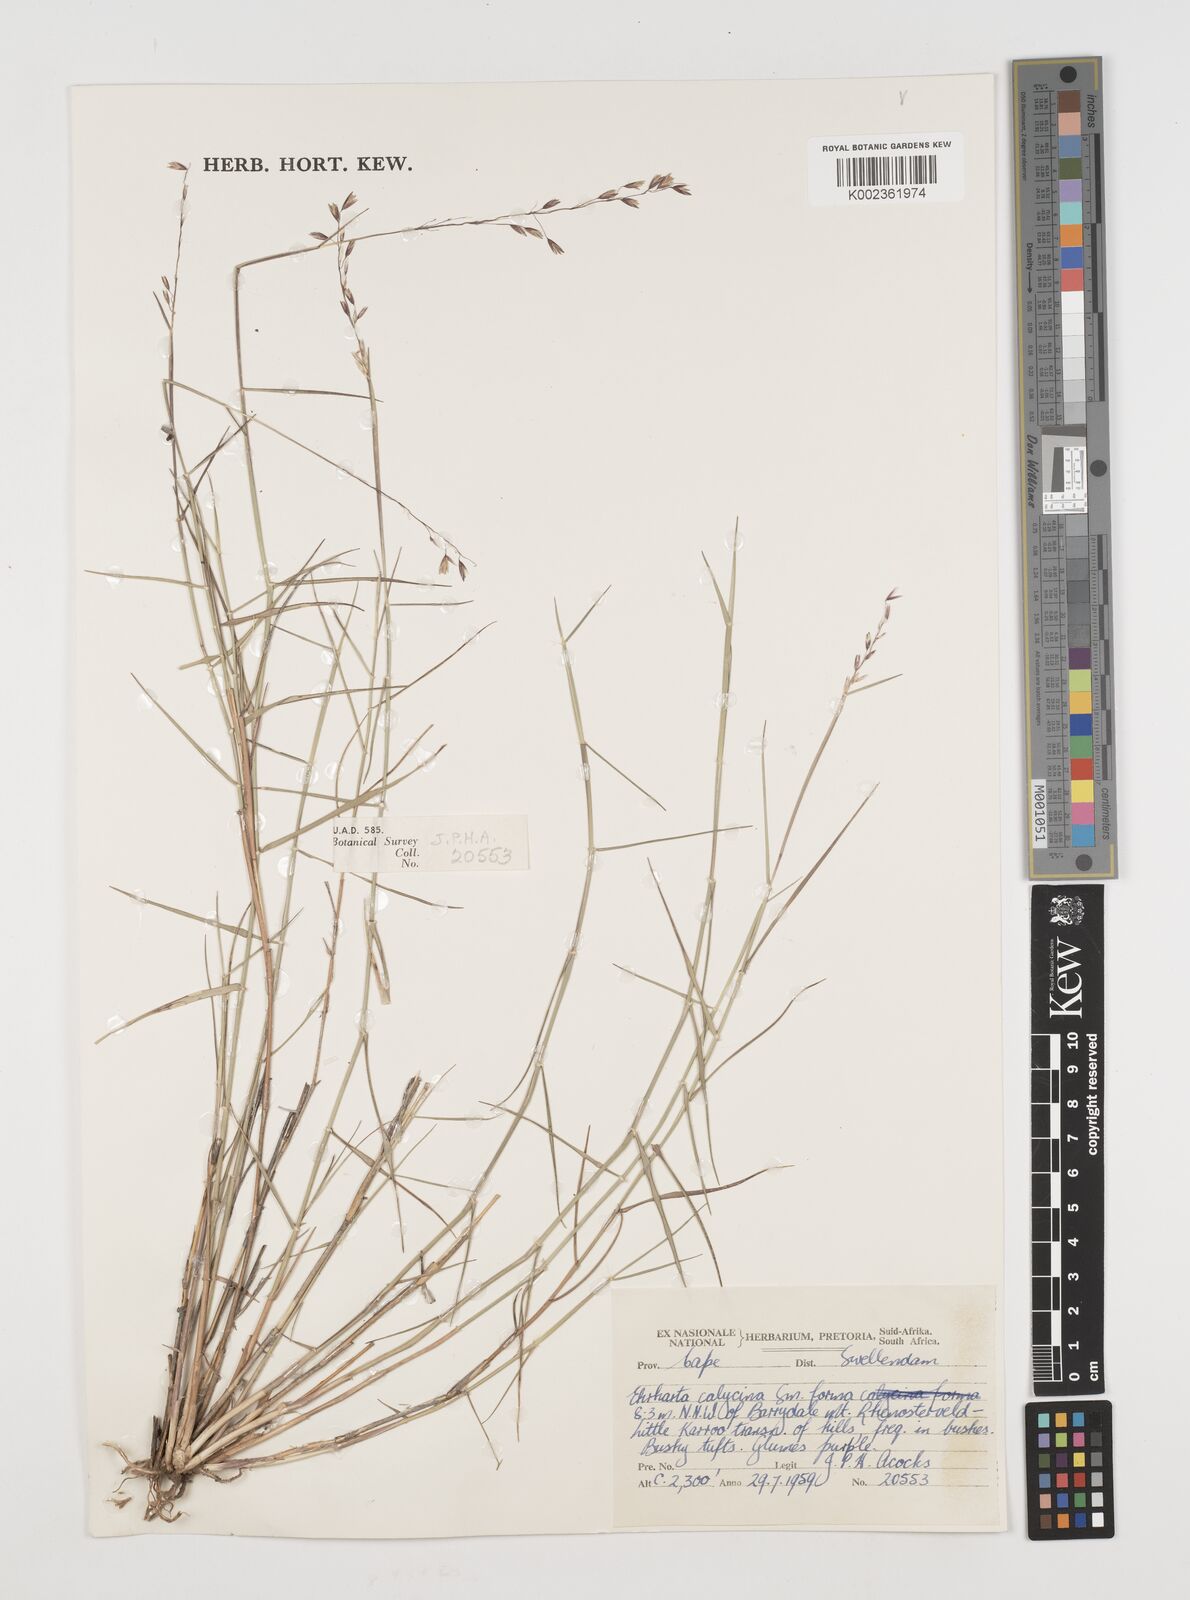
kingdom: Plantae
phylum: Tracheophyta
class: Liliopsida
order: Poales
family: Poaceae
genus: Ehrharta
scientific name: Ehrharta calycina
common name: Perennial veldtgrass
